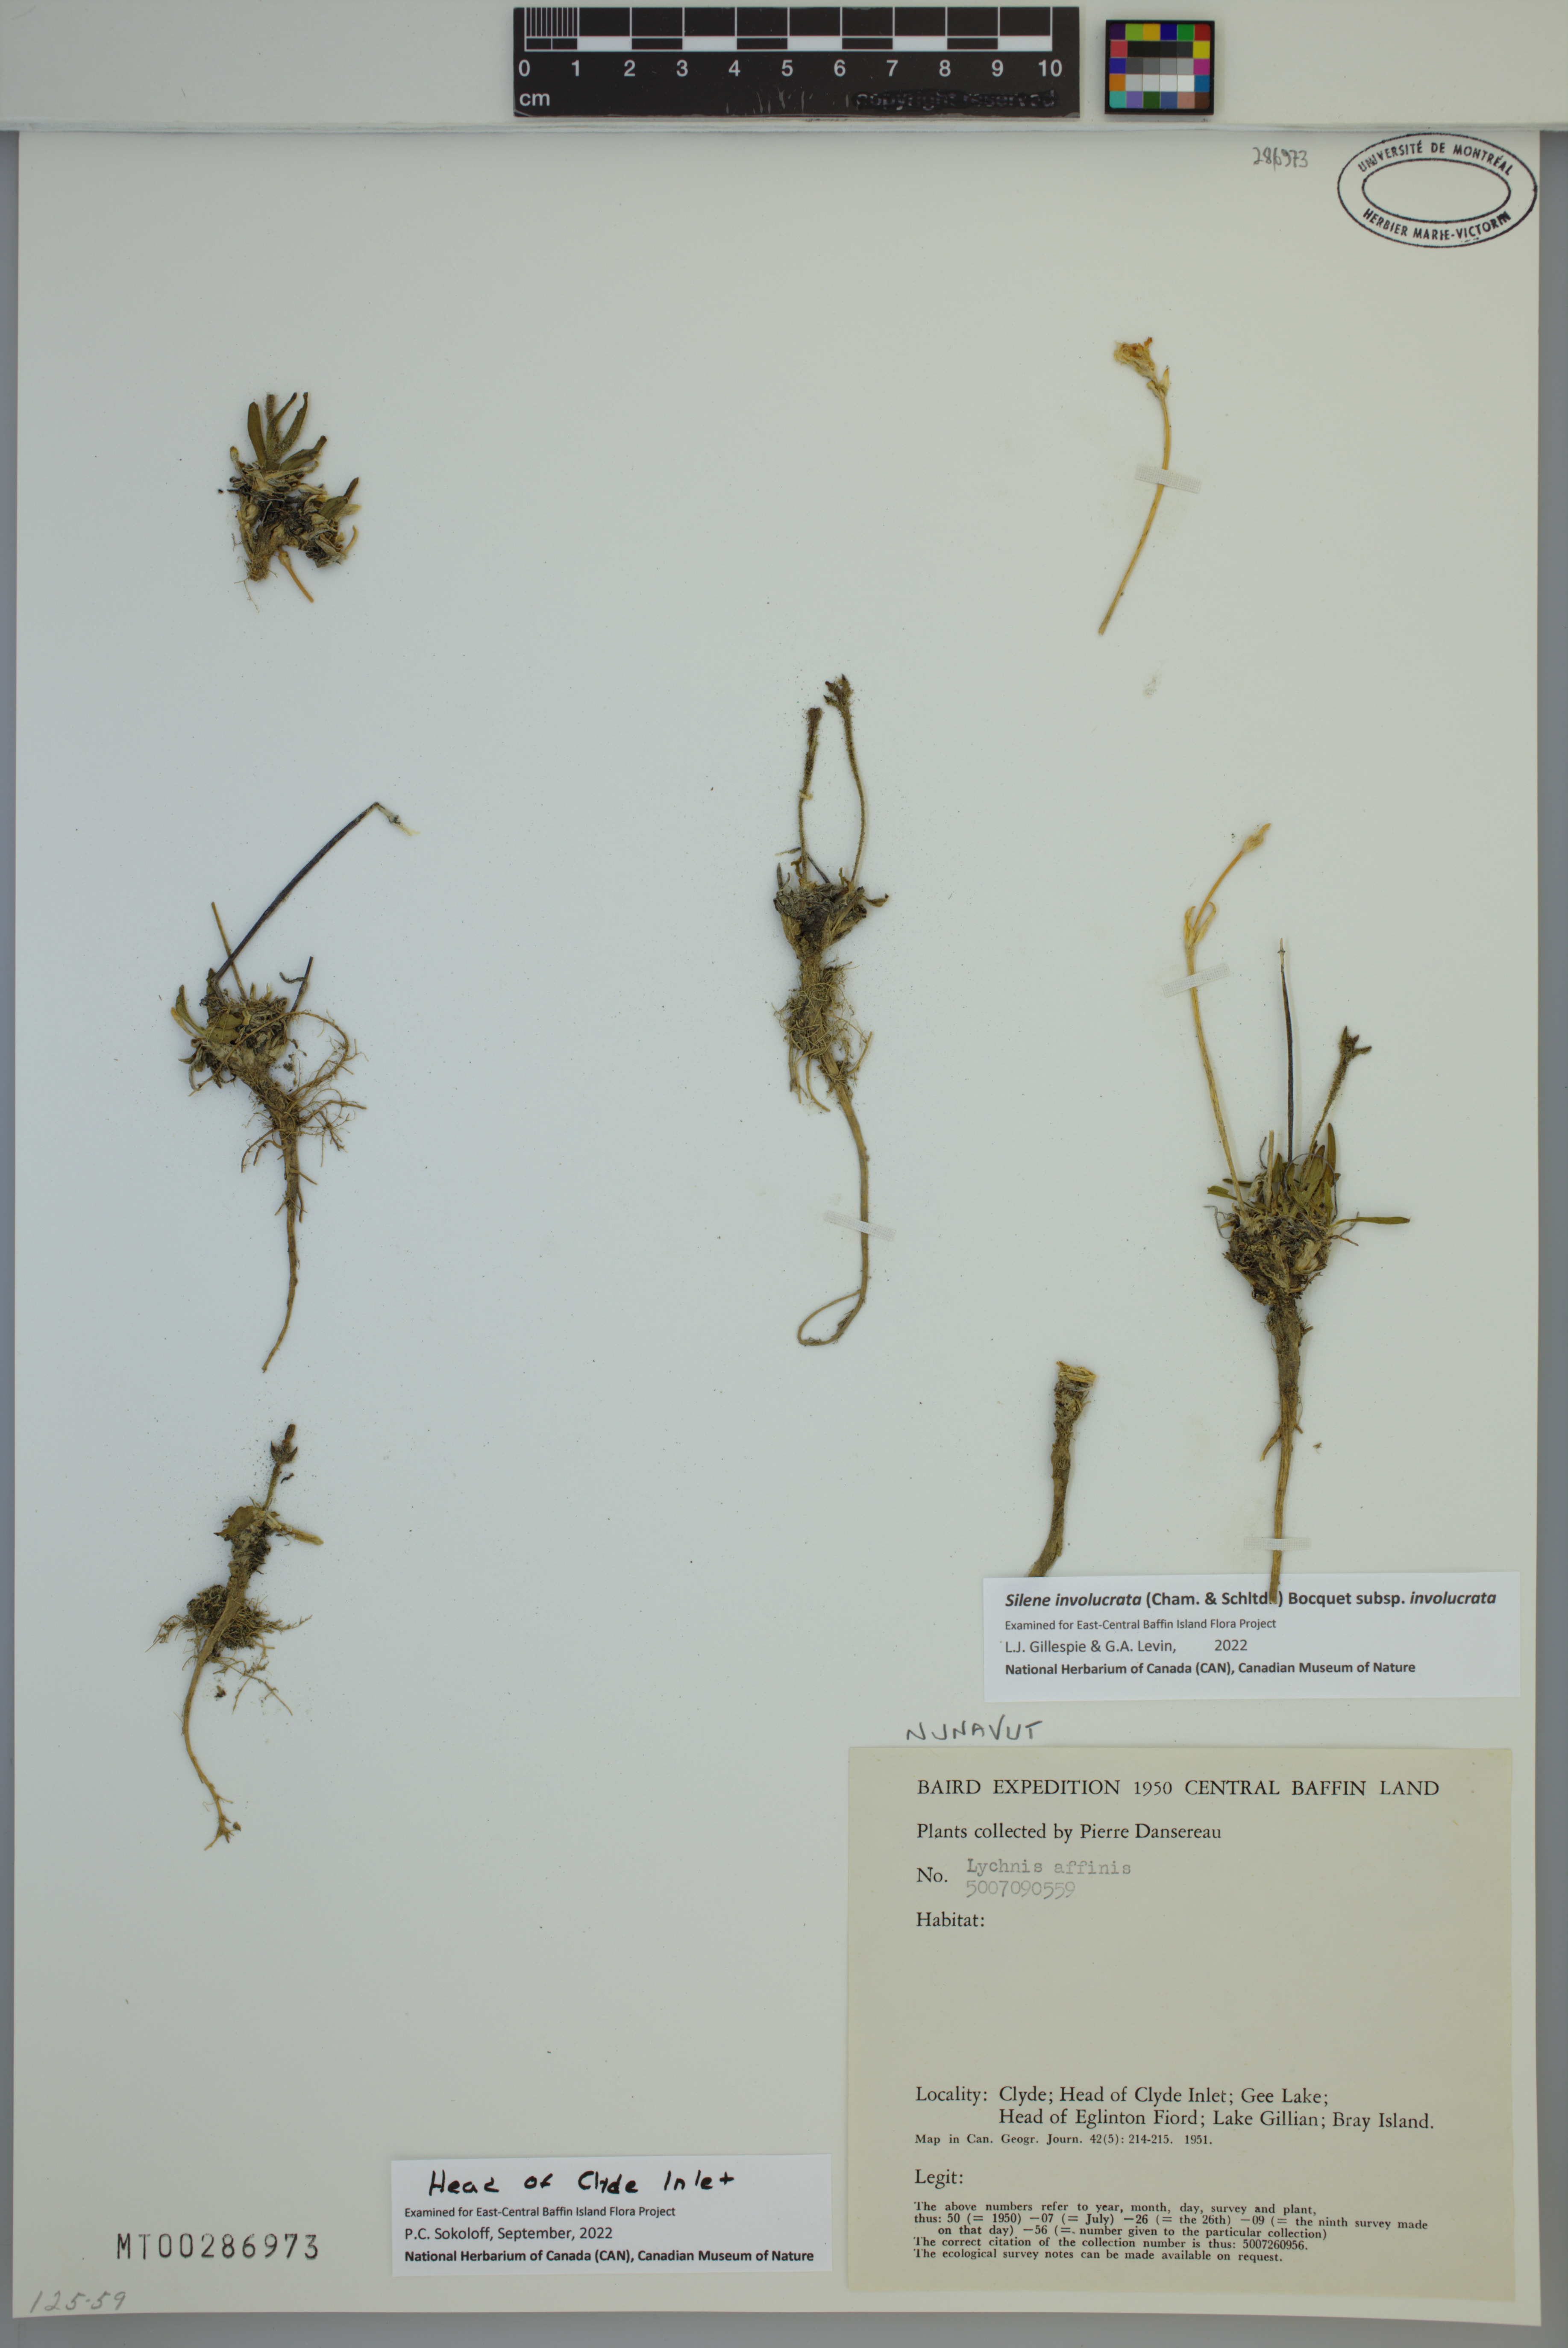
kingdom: Plantae
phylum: Tracheophyta
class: Magnoliopsida
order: Caryophyllales
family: Caryophyllaceae
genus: Silene
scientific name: Silene involucrata
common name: Greater arctic campion
